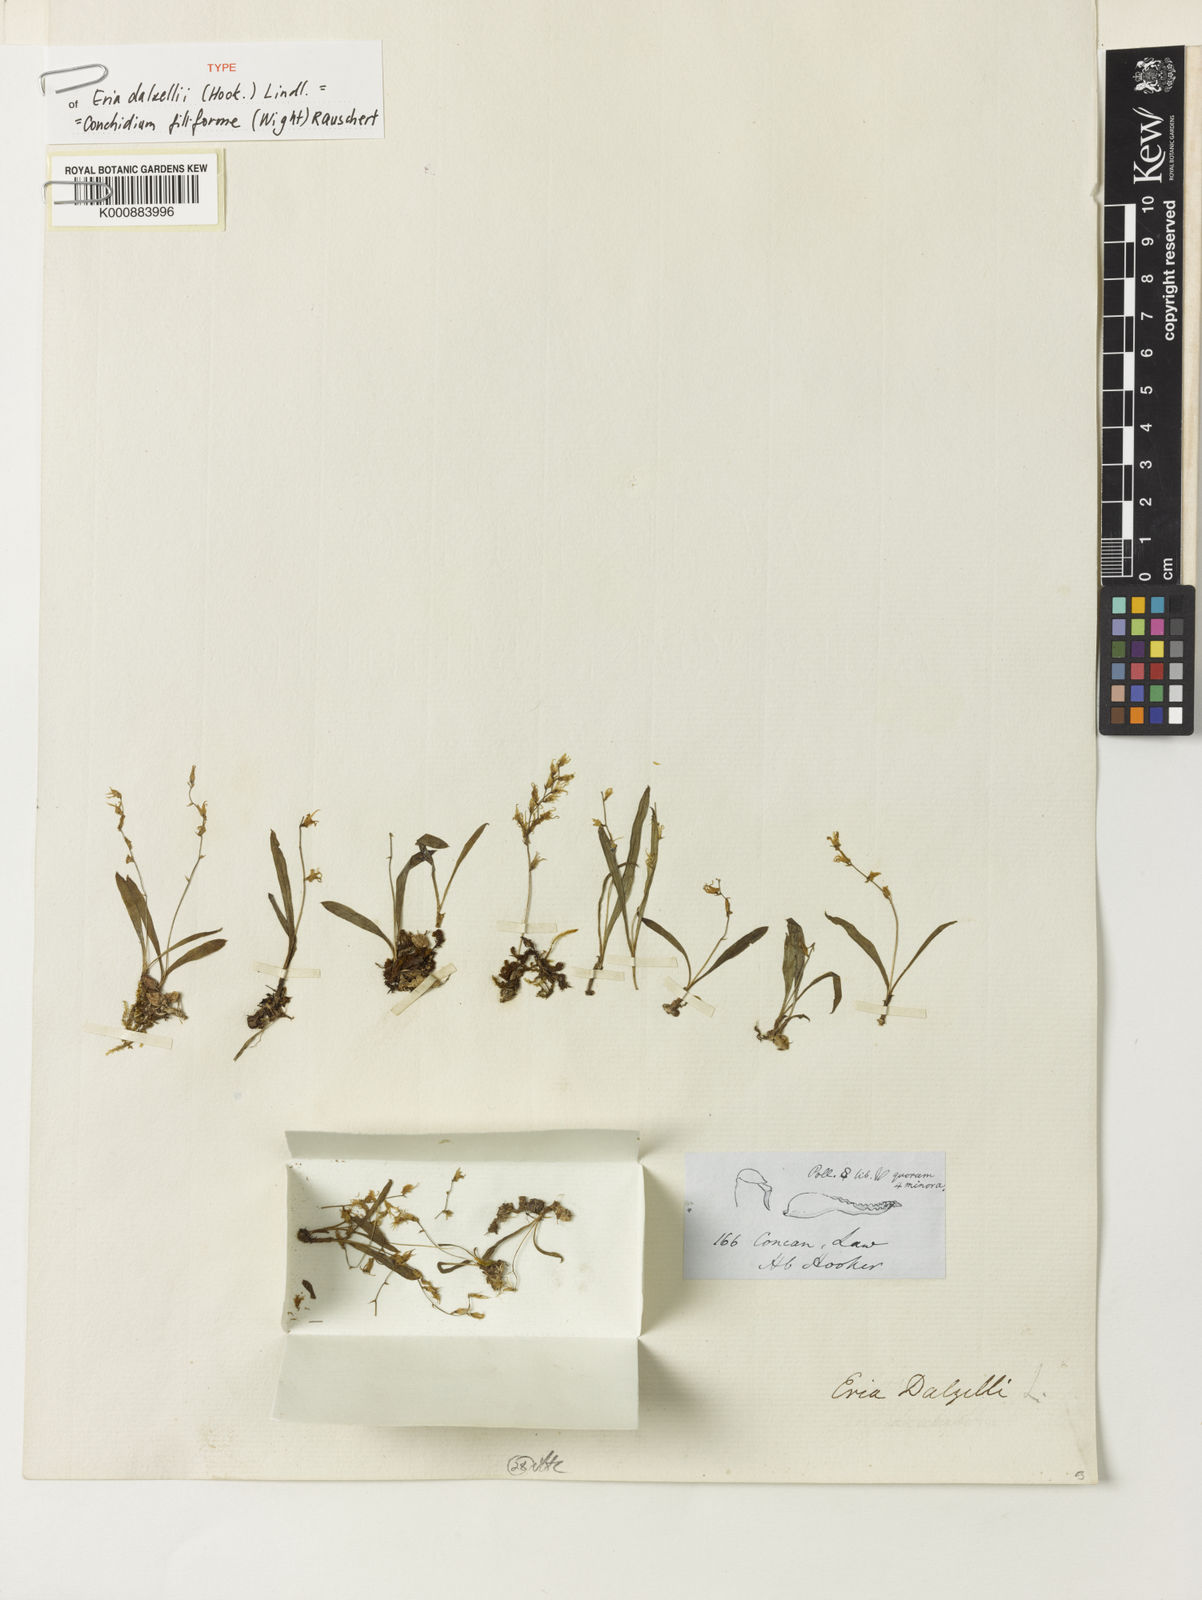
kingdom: Plantae
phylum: Tracheophyta
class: Liliopsida
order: Asparagales
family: Orchidaceae
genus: Porpax
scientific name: Porpax filiformis
